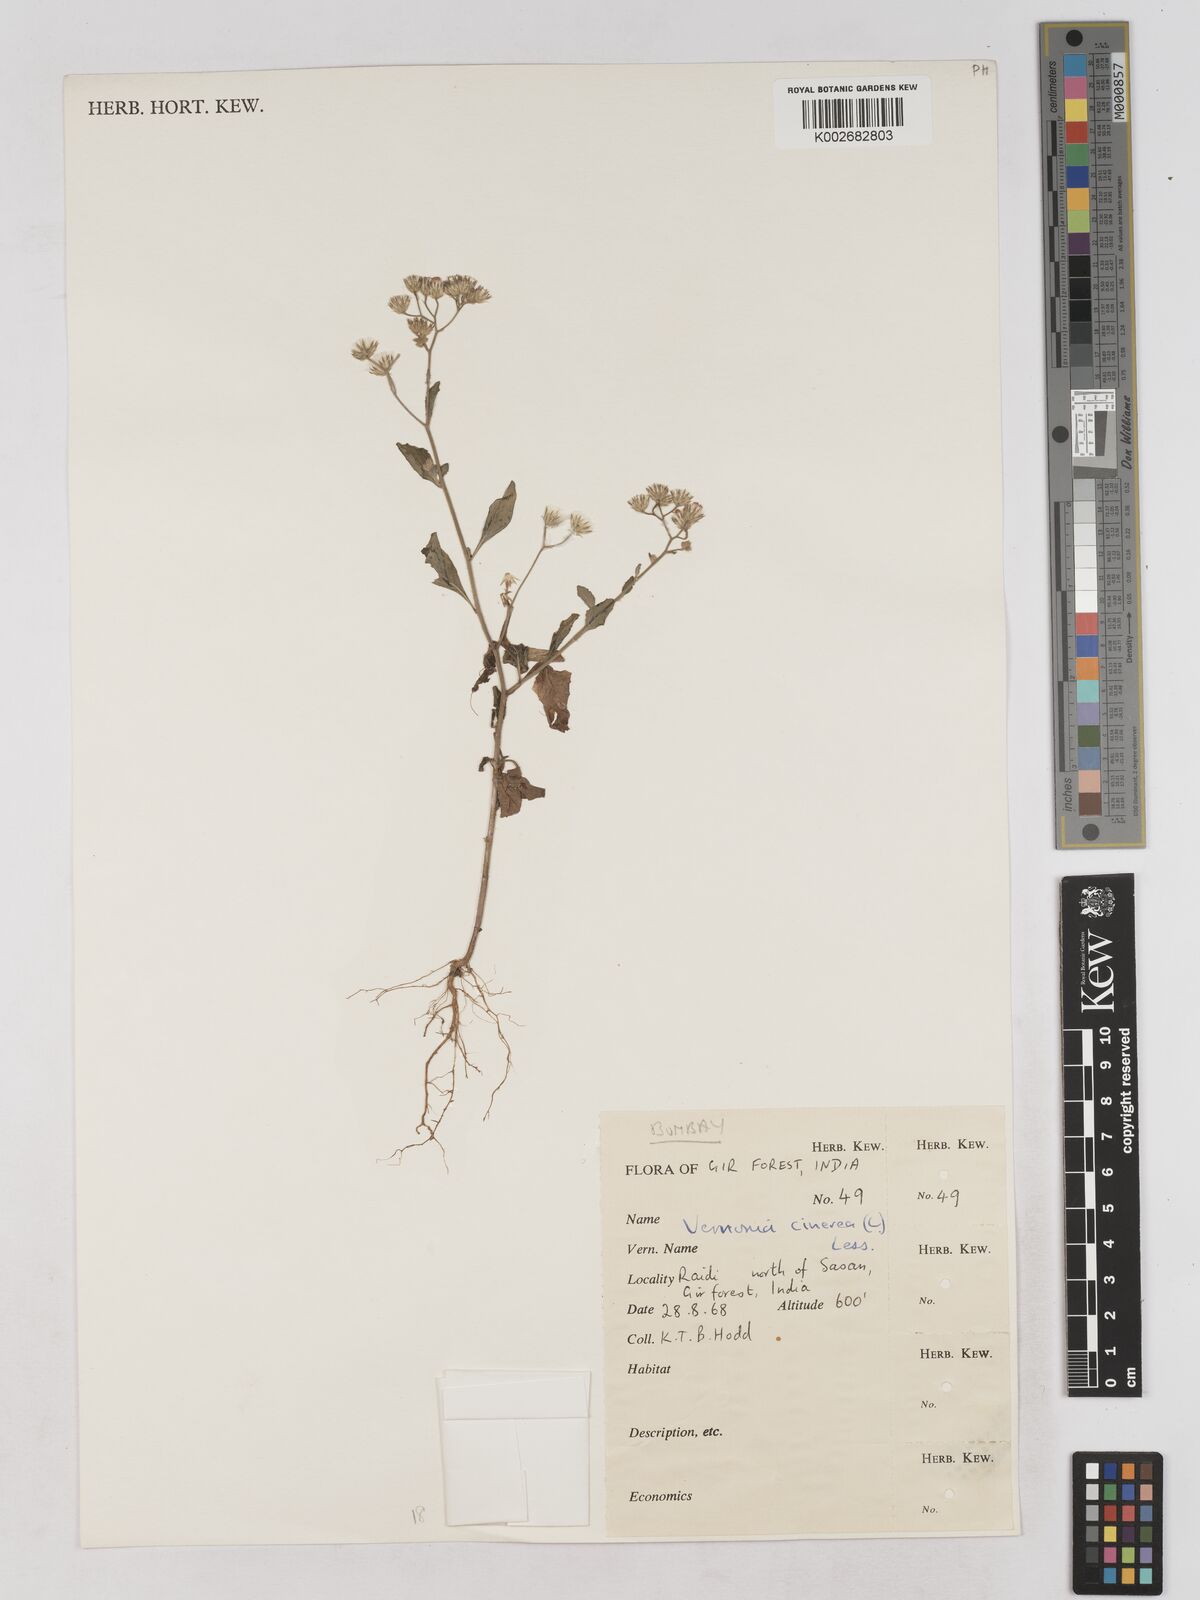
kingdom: Plantae
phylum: Tracheophyta
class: Magnoliopsida
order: Asterales
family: Asteraceae
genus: Cyanthillium
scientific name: Cyanthillium cinereum
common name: Little ironweed
